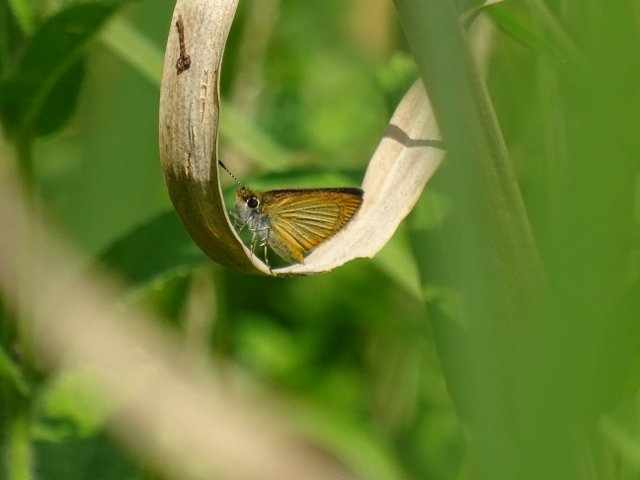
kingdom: Animalia
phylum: Arthropoda
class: Insecta
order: Lepidoptera
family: Hesperiidae
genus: Ancyloxypha
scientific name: Ancyloxypha numitor
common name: Least Skipper
